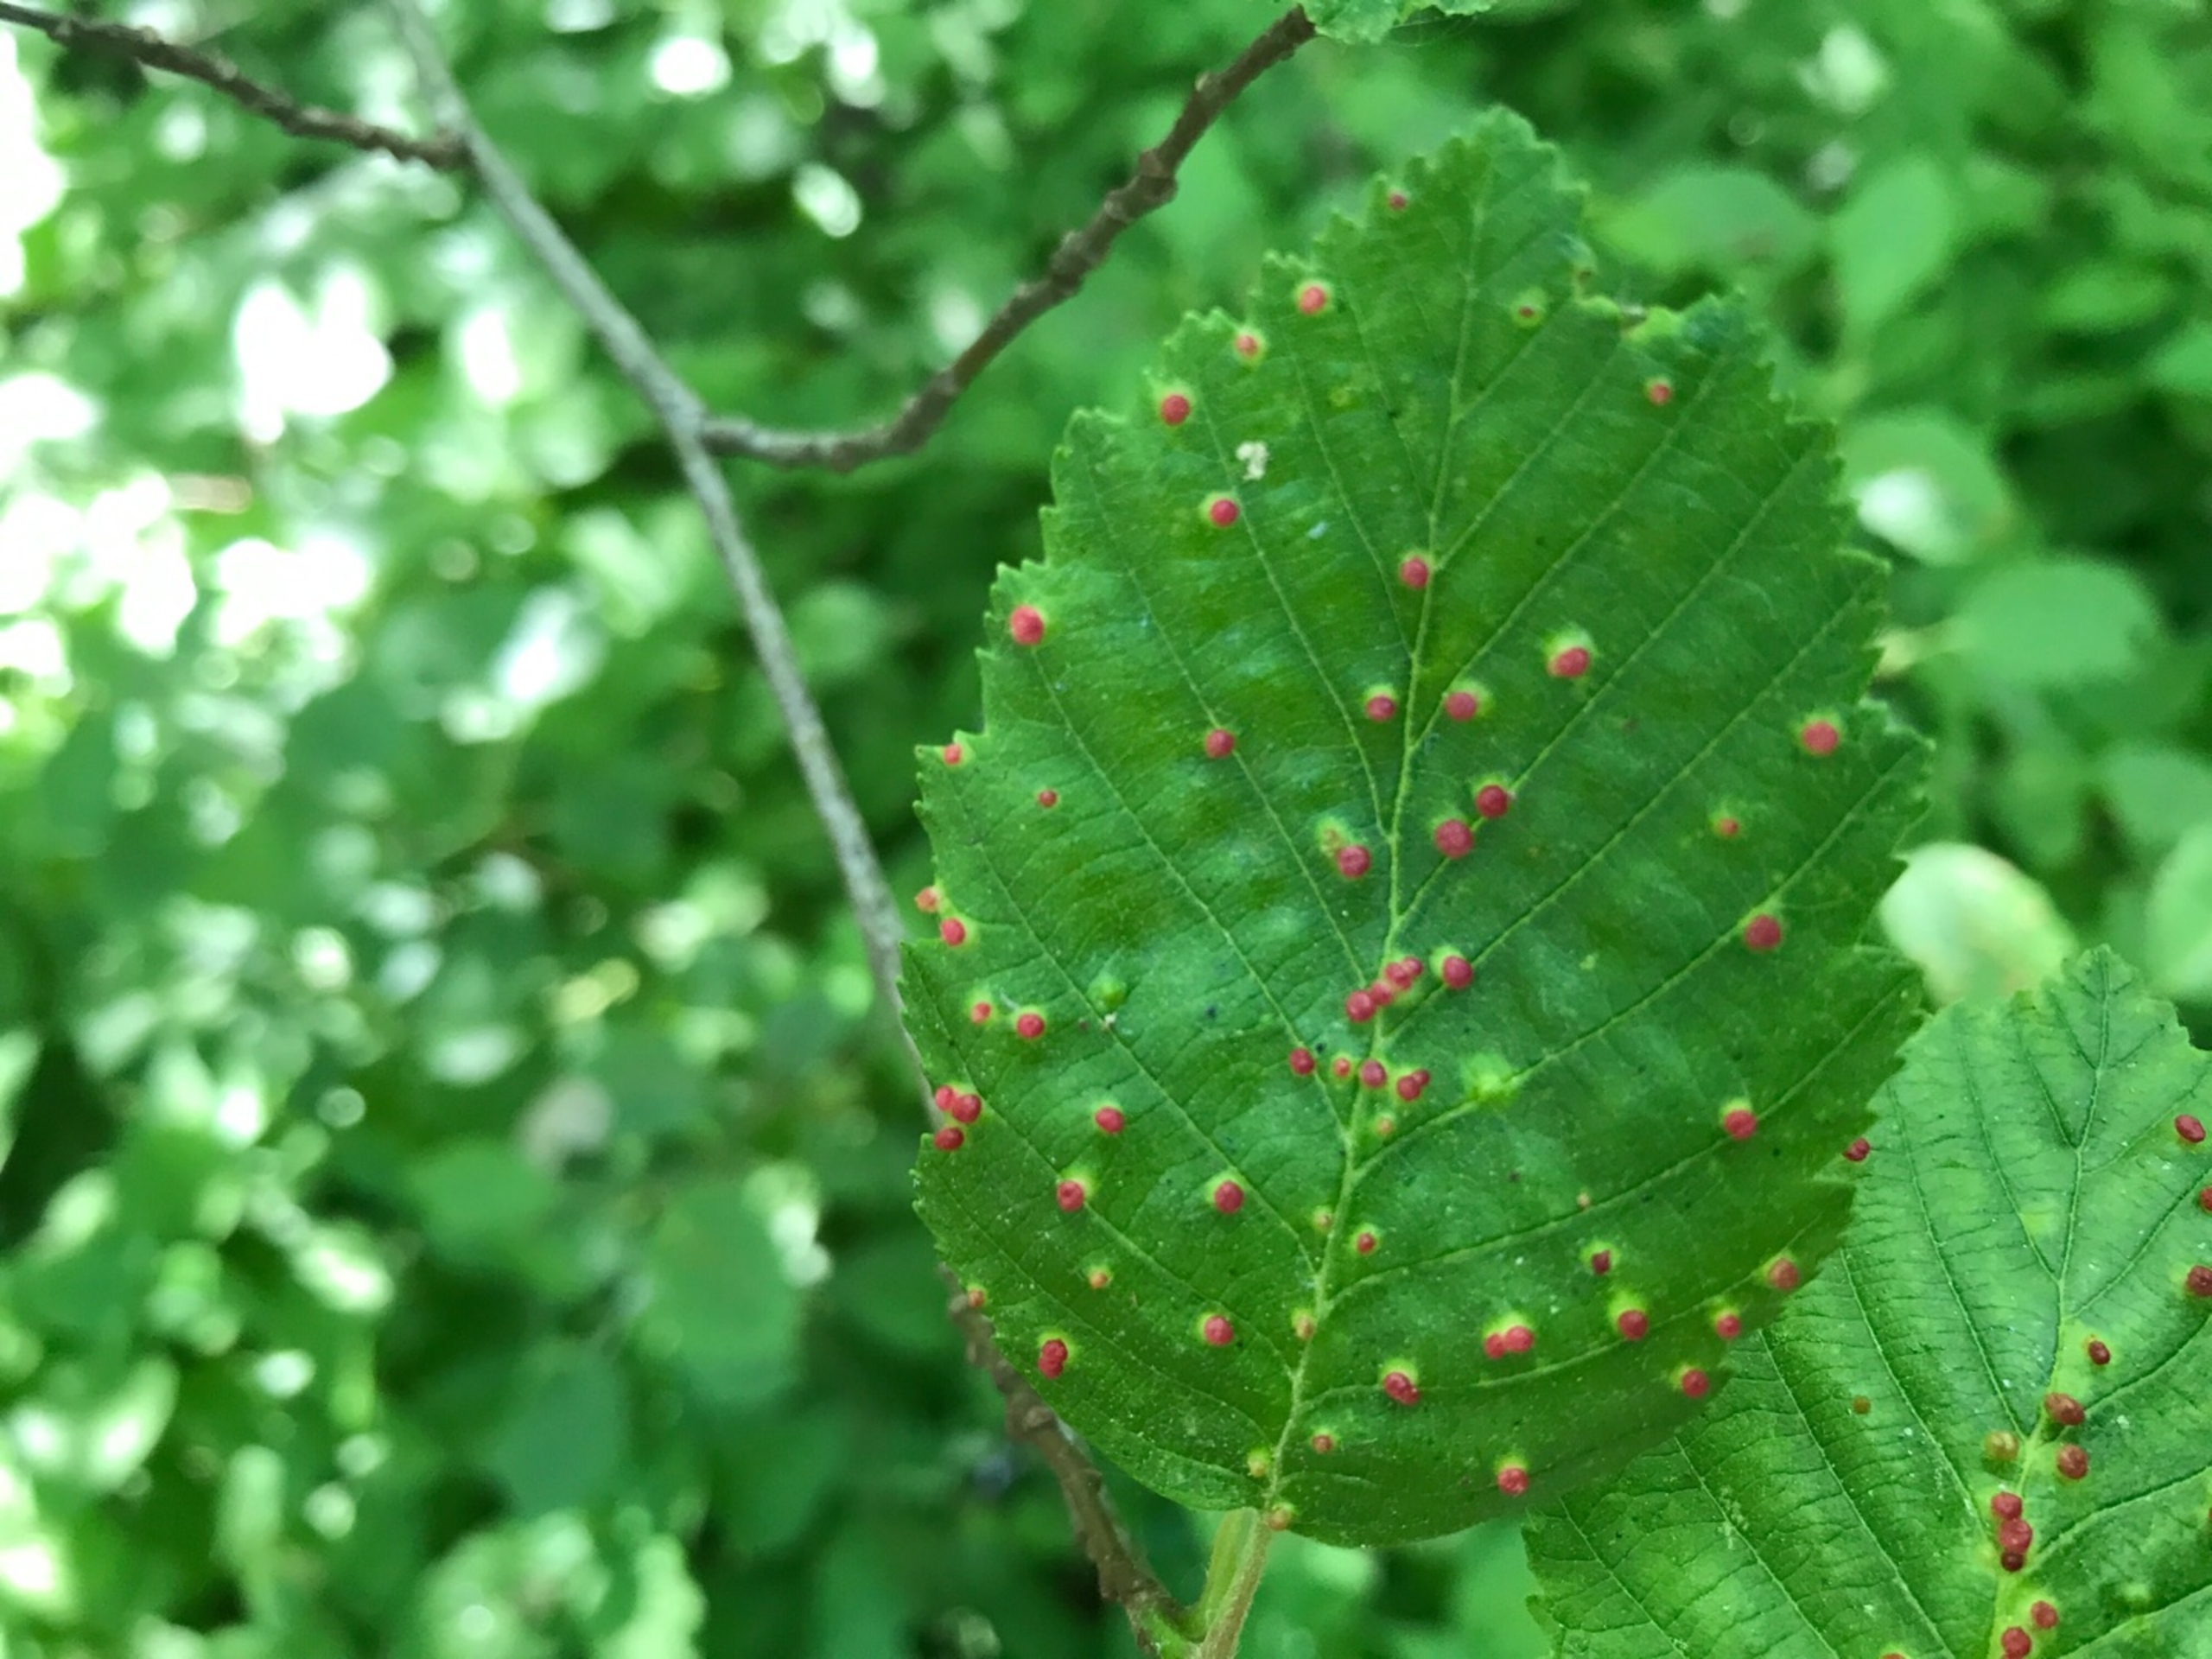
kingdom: Animalia
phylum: Arthropoda
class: Arachnida
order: Trombidiformes
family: Eriophyidae
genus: Eriophyes
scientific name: Eriophyes laevis
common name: Ellepunggalmide
